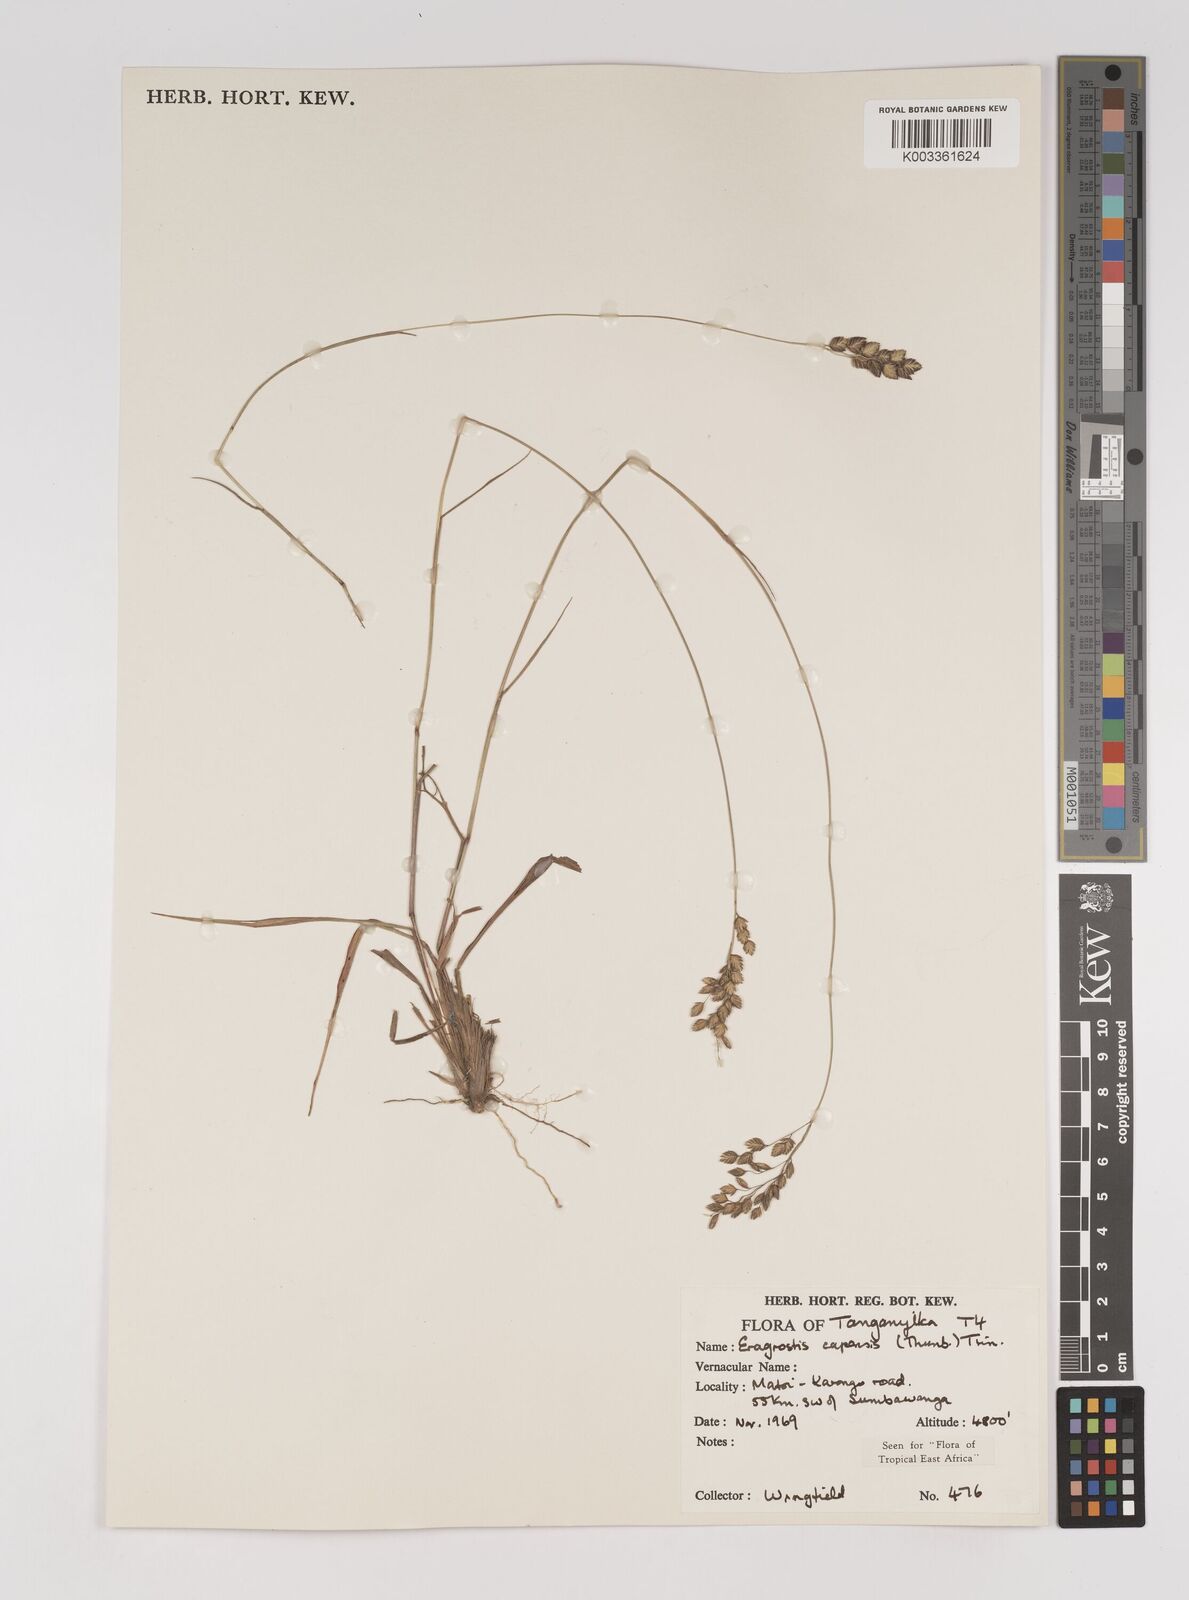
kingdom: Plantae
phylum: Tracheophyta
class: Liliopsida
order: Poales
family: Poaceae
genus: Eragrostis
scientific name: Eragrostis capensis
